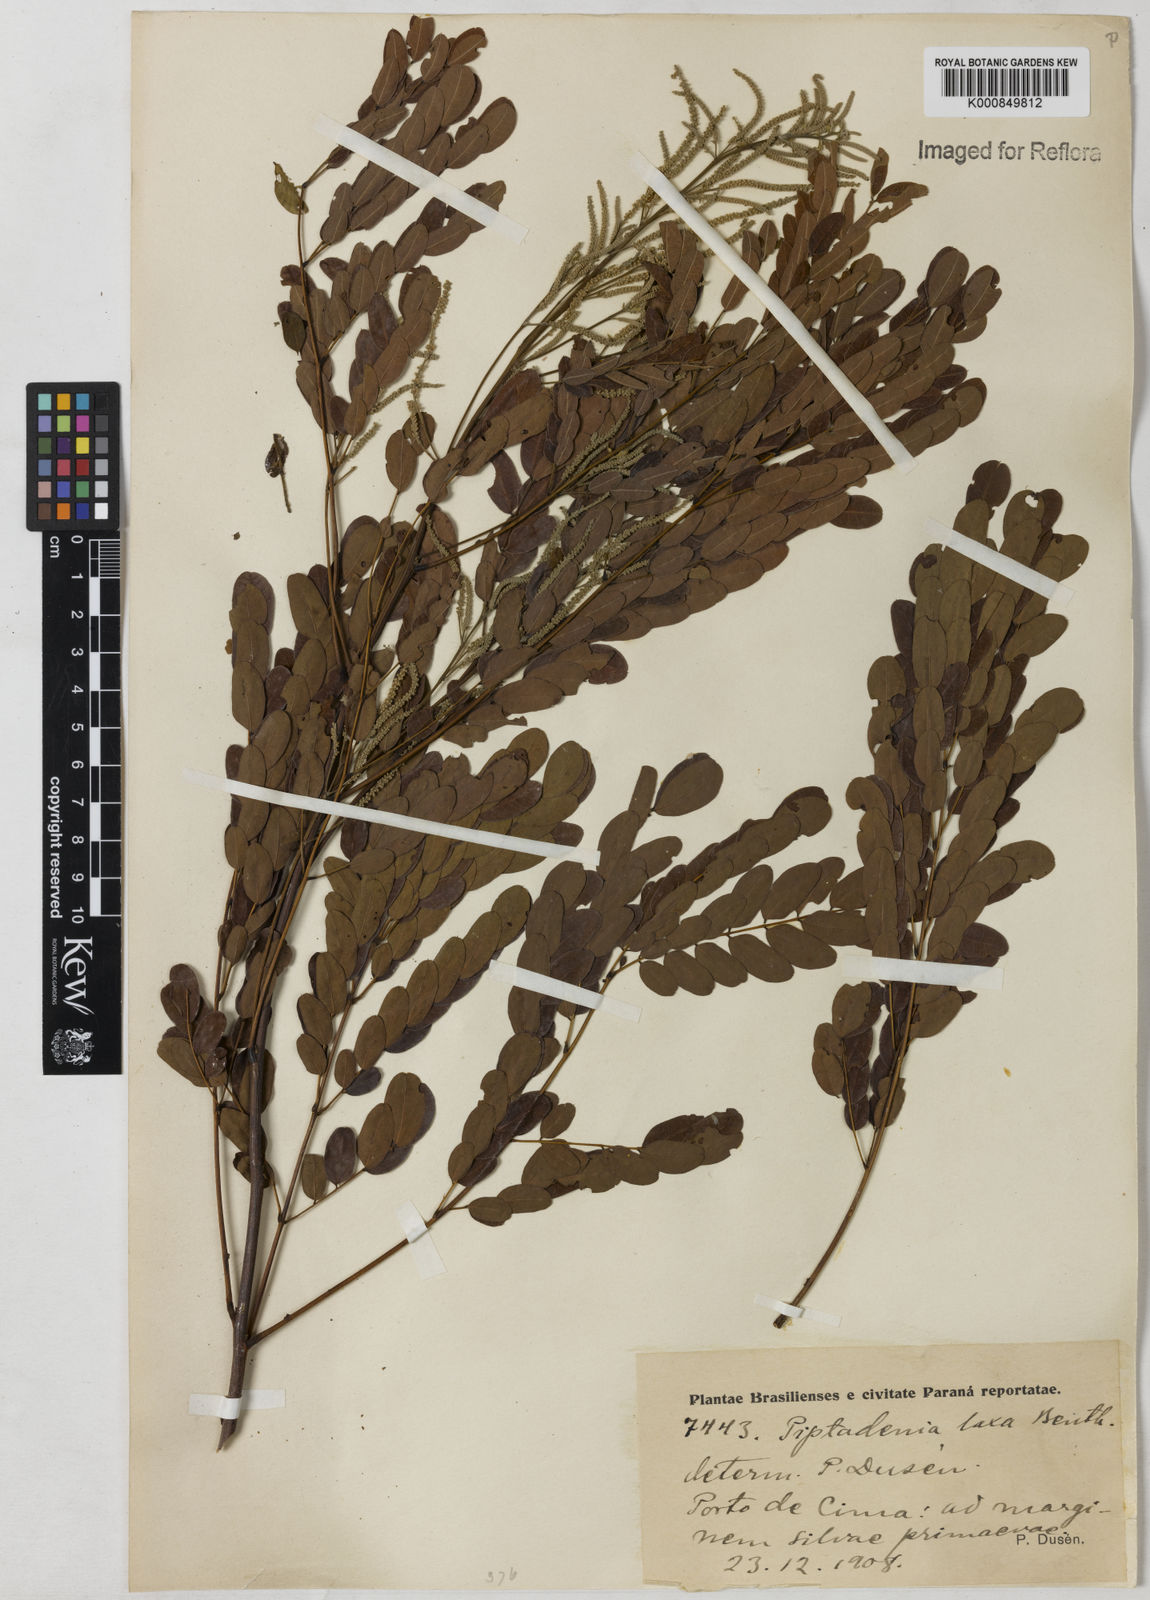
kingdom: Plantae
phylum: Tracheophyta
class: Magnoliopsida
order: Fabales
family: Fabaceae
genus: Piptadenia
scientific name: Piptadenia adiantoides
